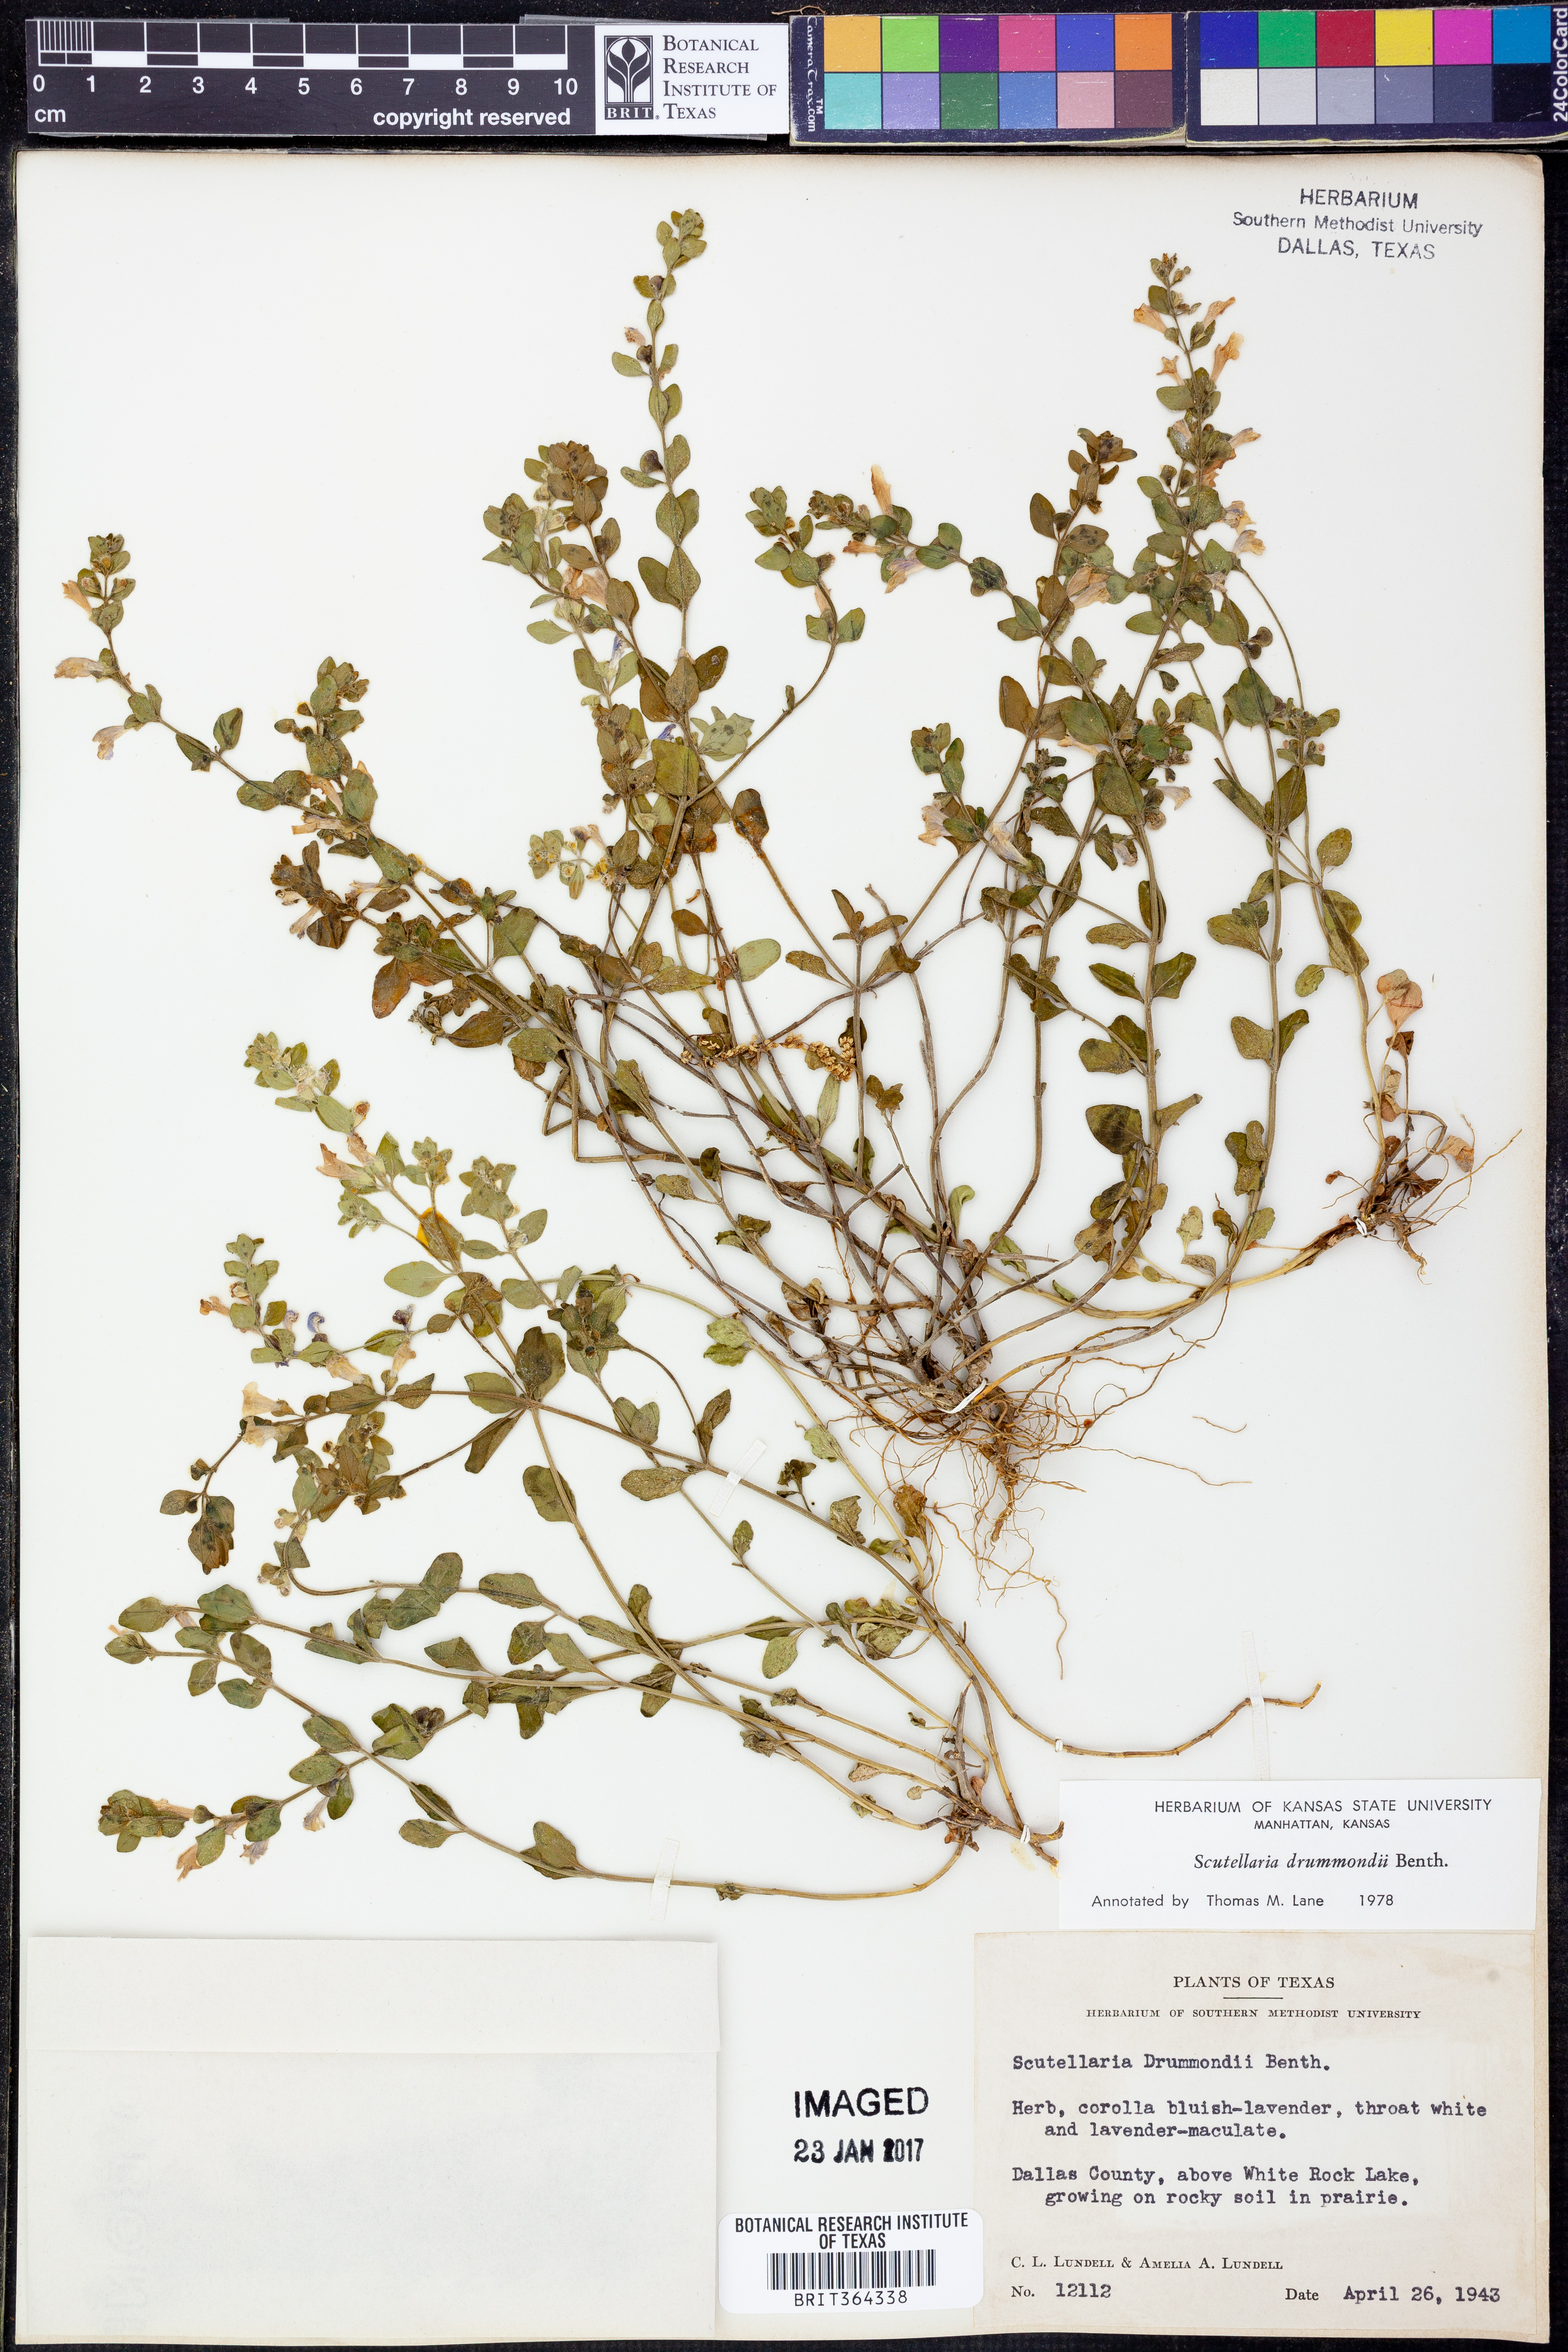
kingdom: Plantae
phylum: Tracheophyta
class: Magnoliopsida
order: Lamiales
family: Lamiaceae
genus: Scutellaria
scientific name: Scutellaria drummondii
